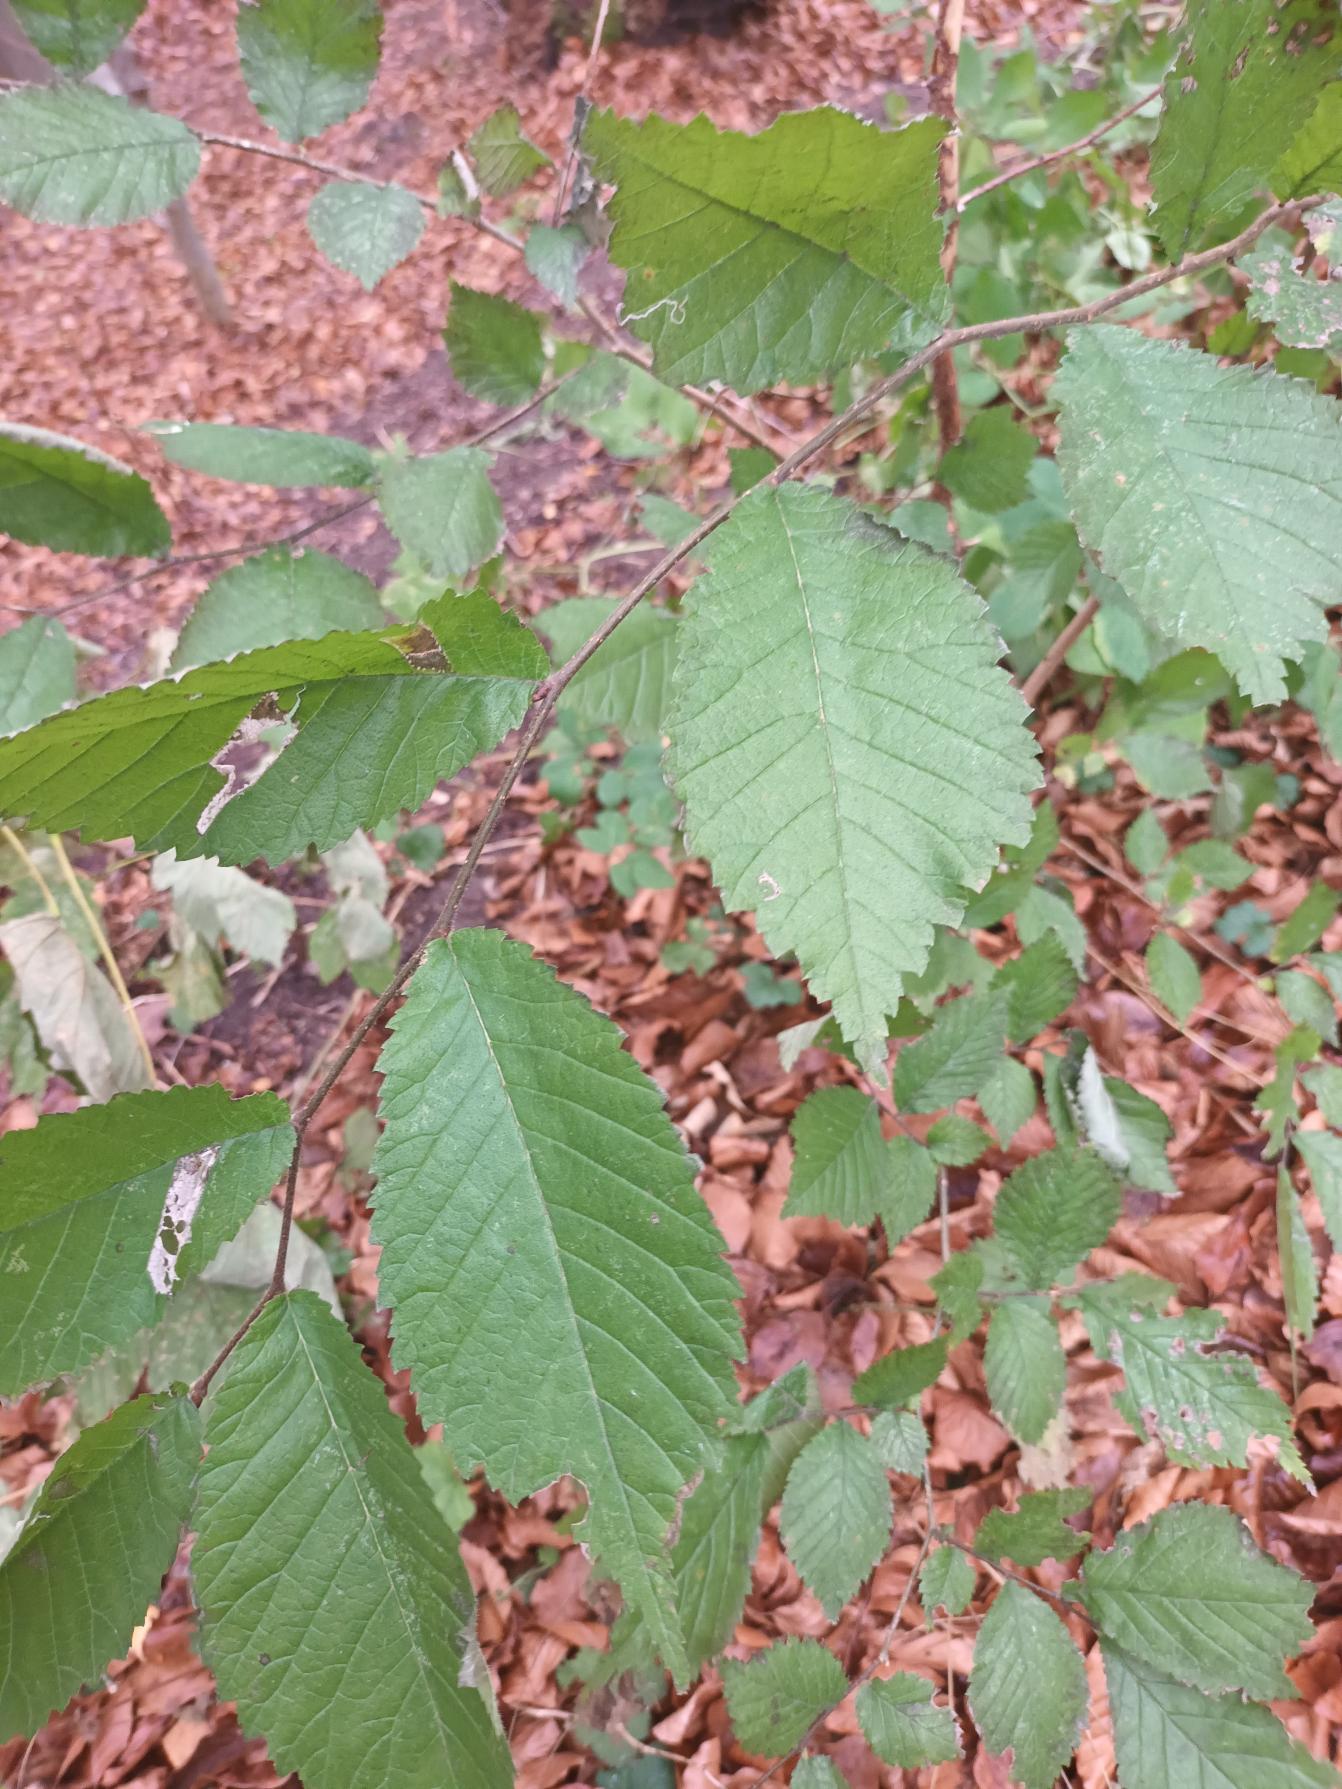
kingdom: Plantae
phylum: Tracheophyta
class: Magnoliopsida
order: Rosales
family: Ulmaceae
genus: Ulmus
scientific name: Ulmus glabra
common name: Skov-elm/storbladet elm
